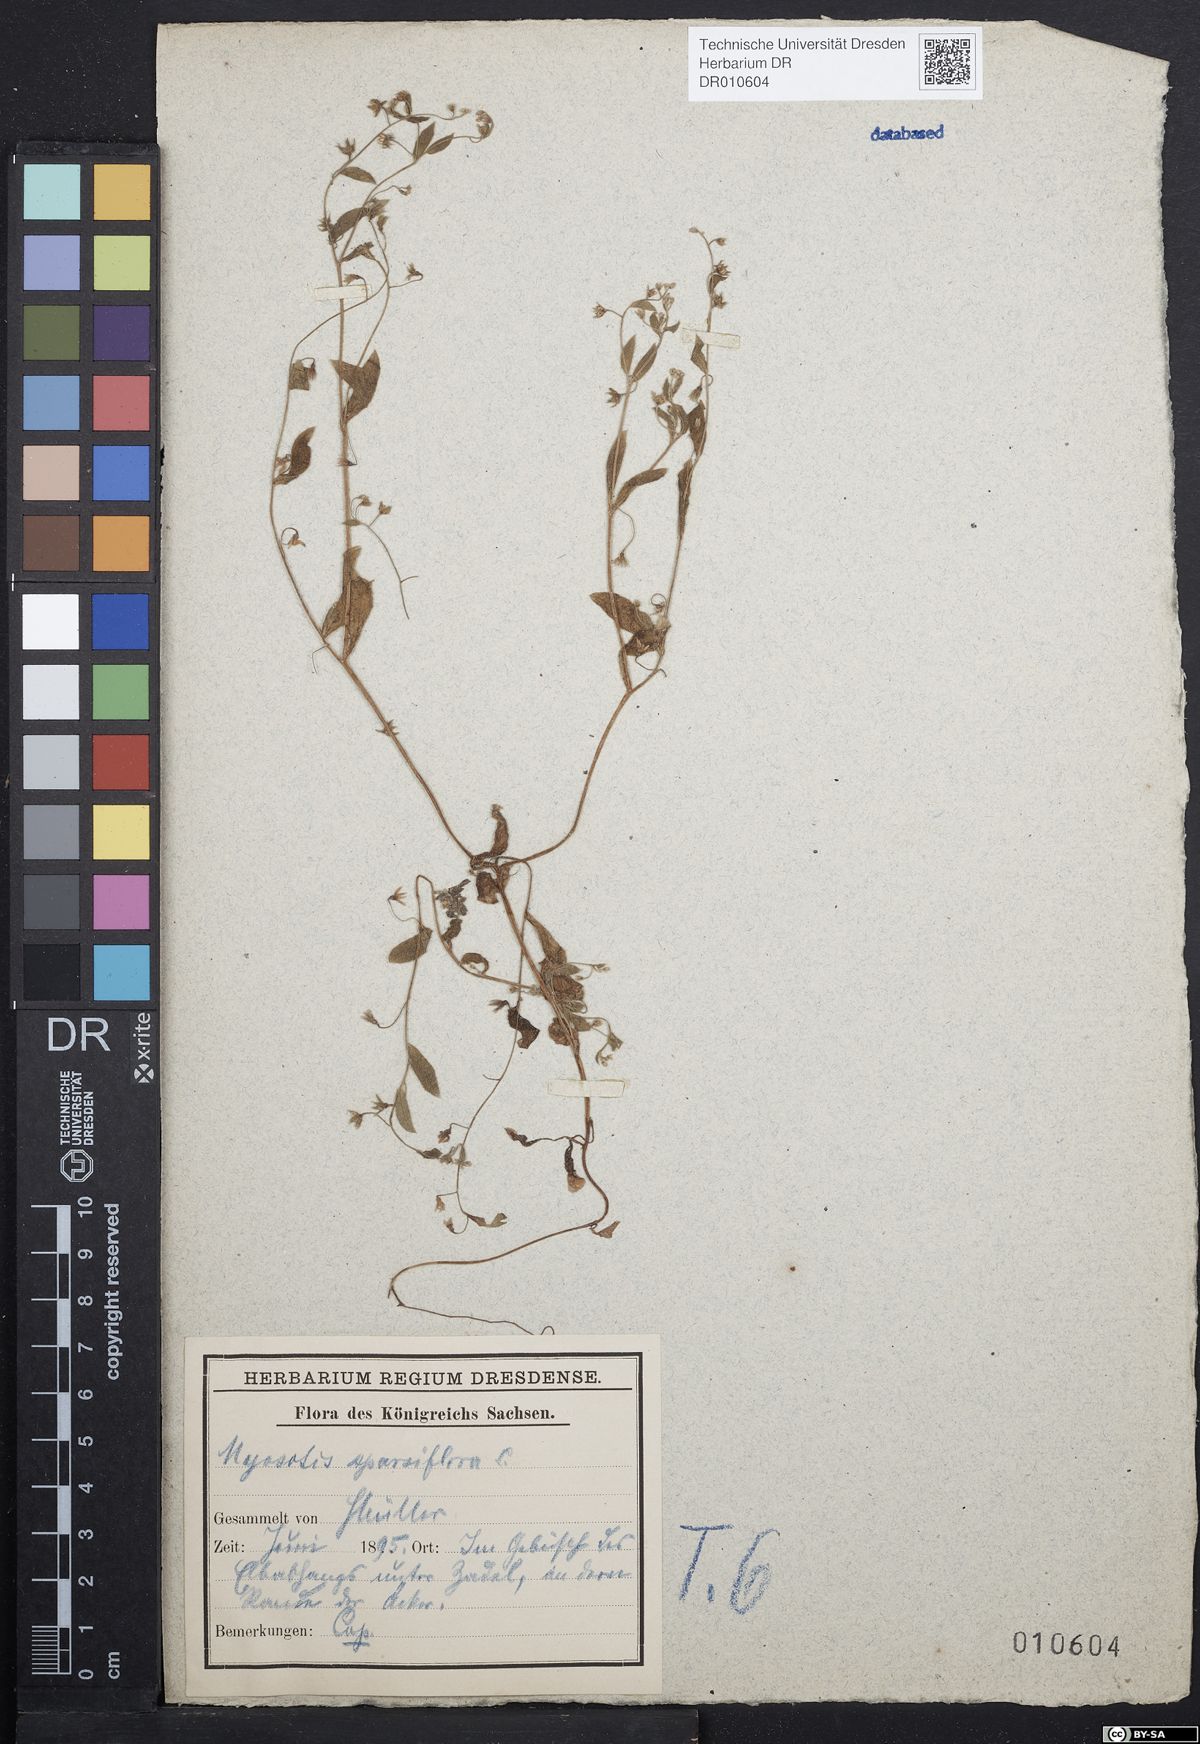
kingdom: Plantae
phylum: Tracheophyta
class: Magnoliopsida
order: Boraginales
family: Boraginaceae
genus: Myosotis
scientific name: Myosotis sparsiflora
